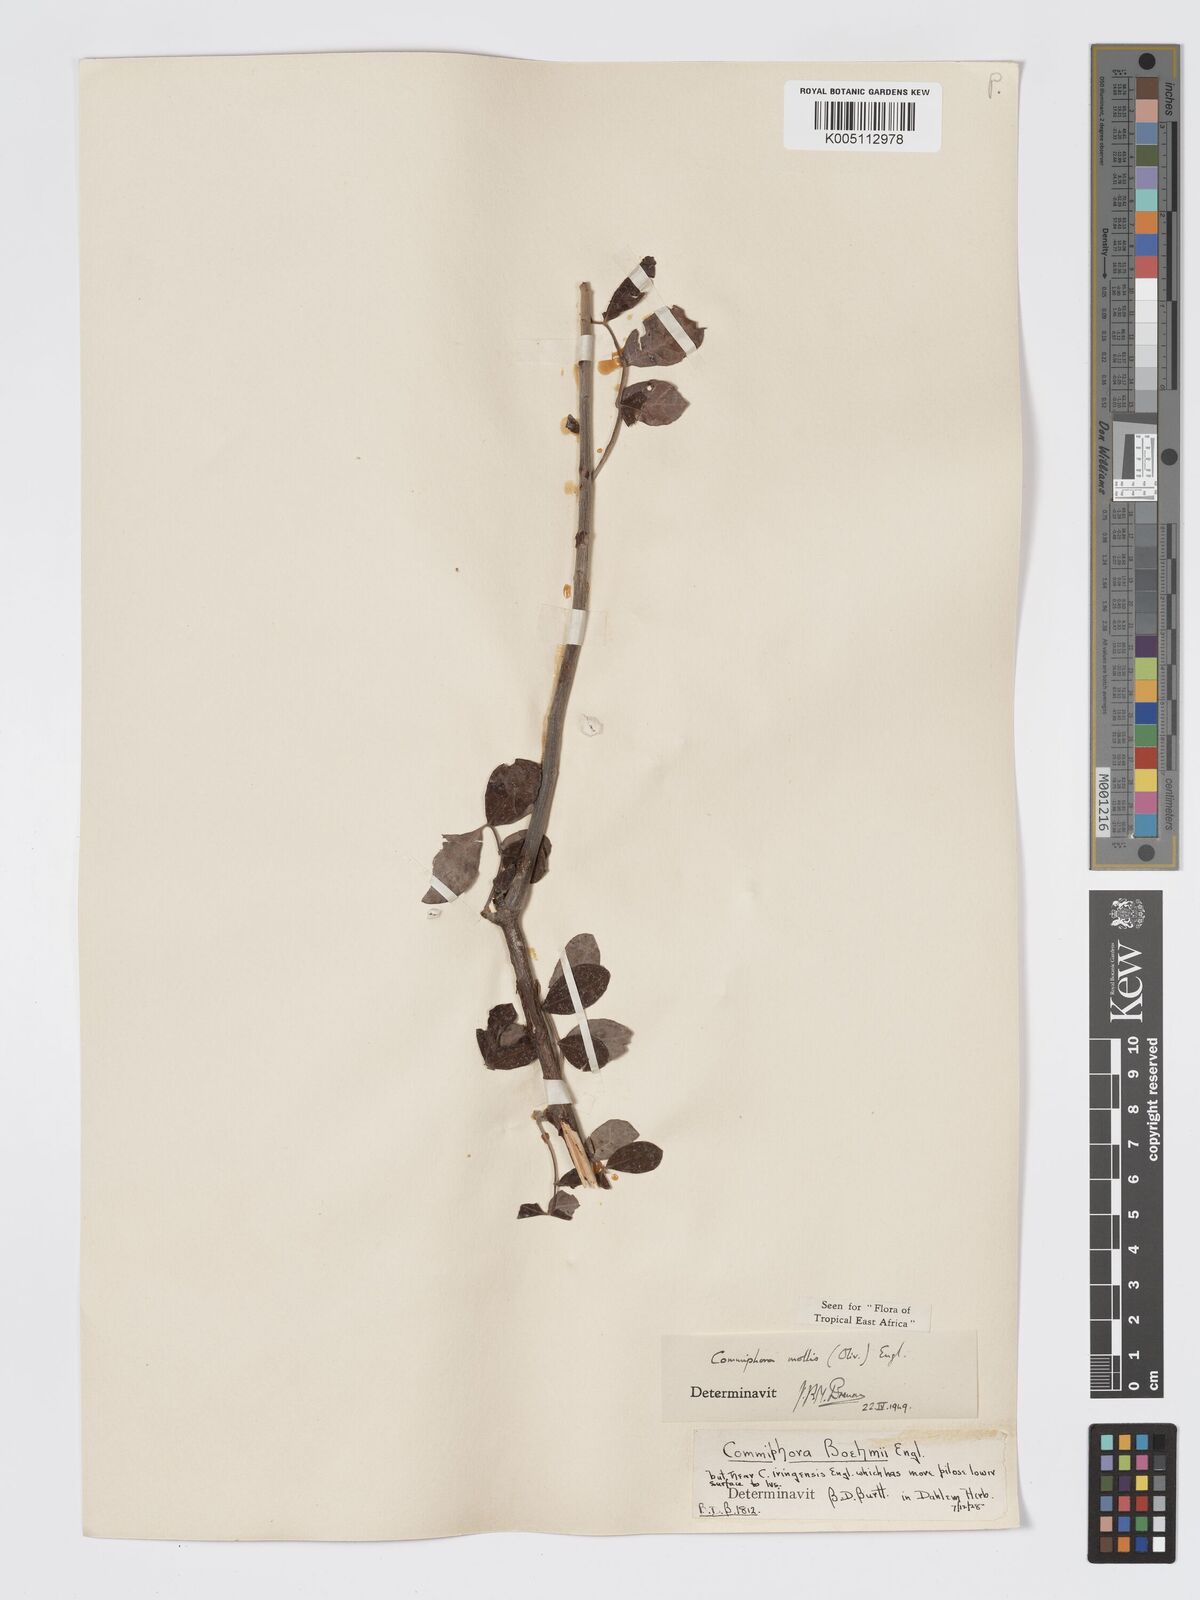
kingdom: Plantae
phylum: Tracheophyta
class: Magnoliopsida
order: Sapindales
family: Burseraceae
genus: Commiphora
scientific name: Commiphora
